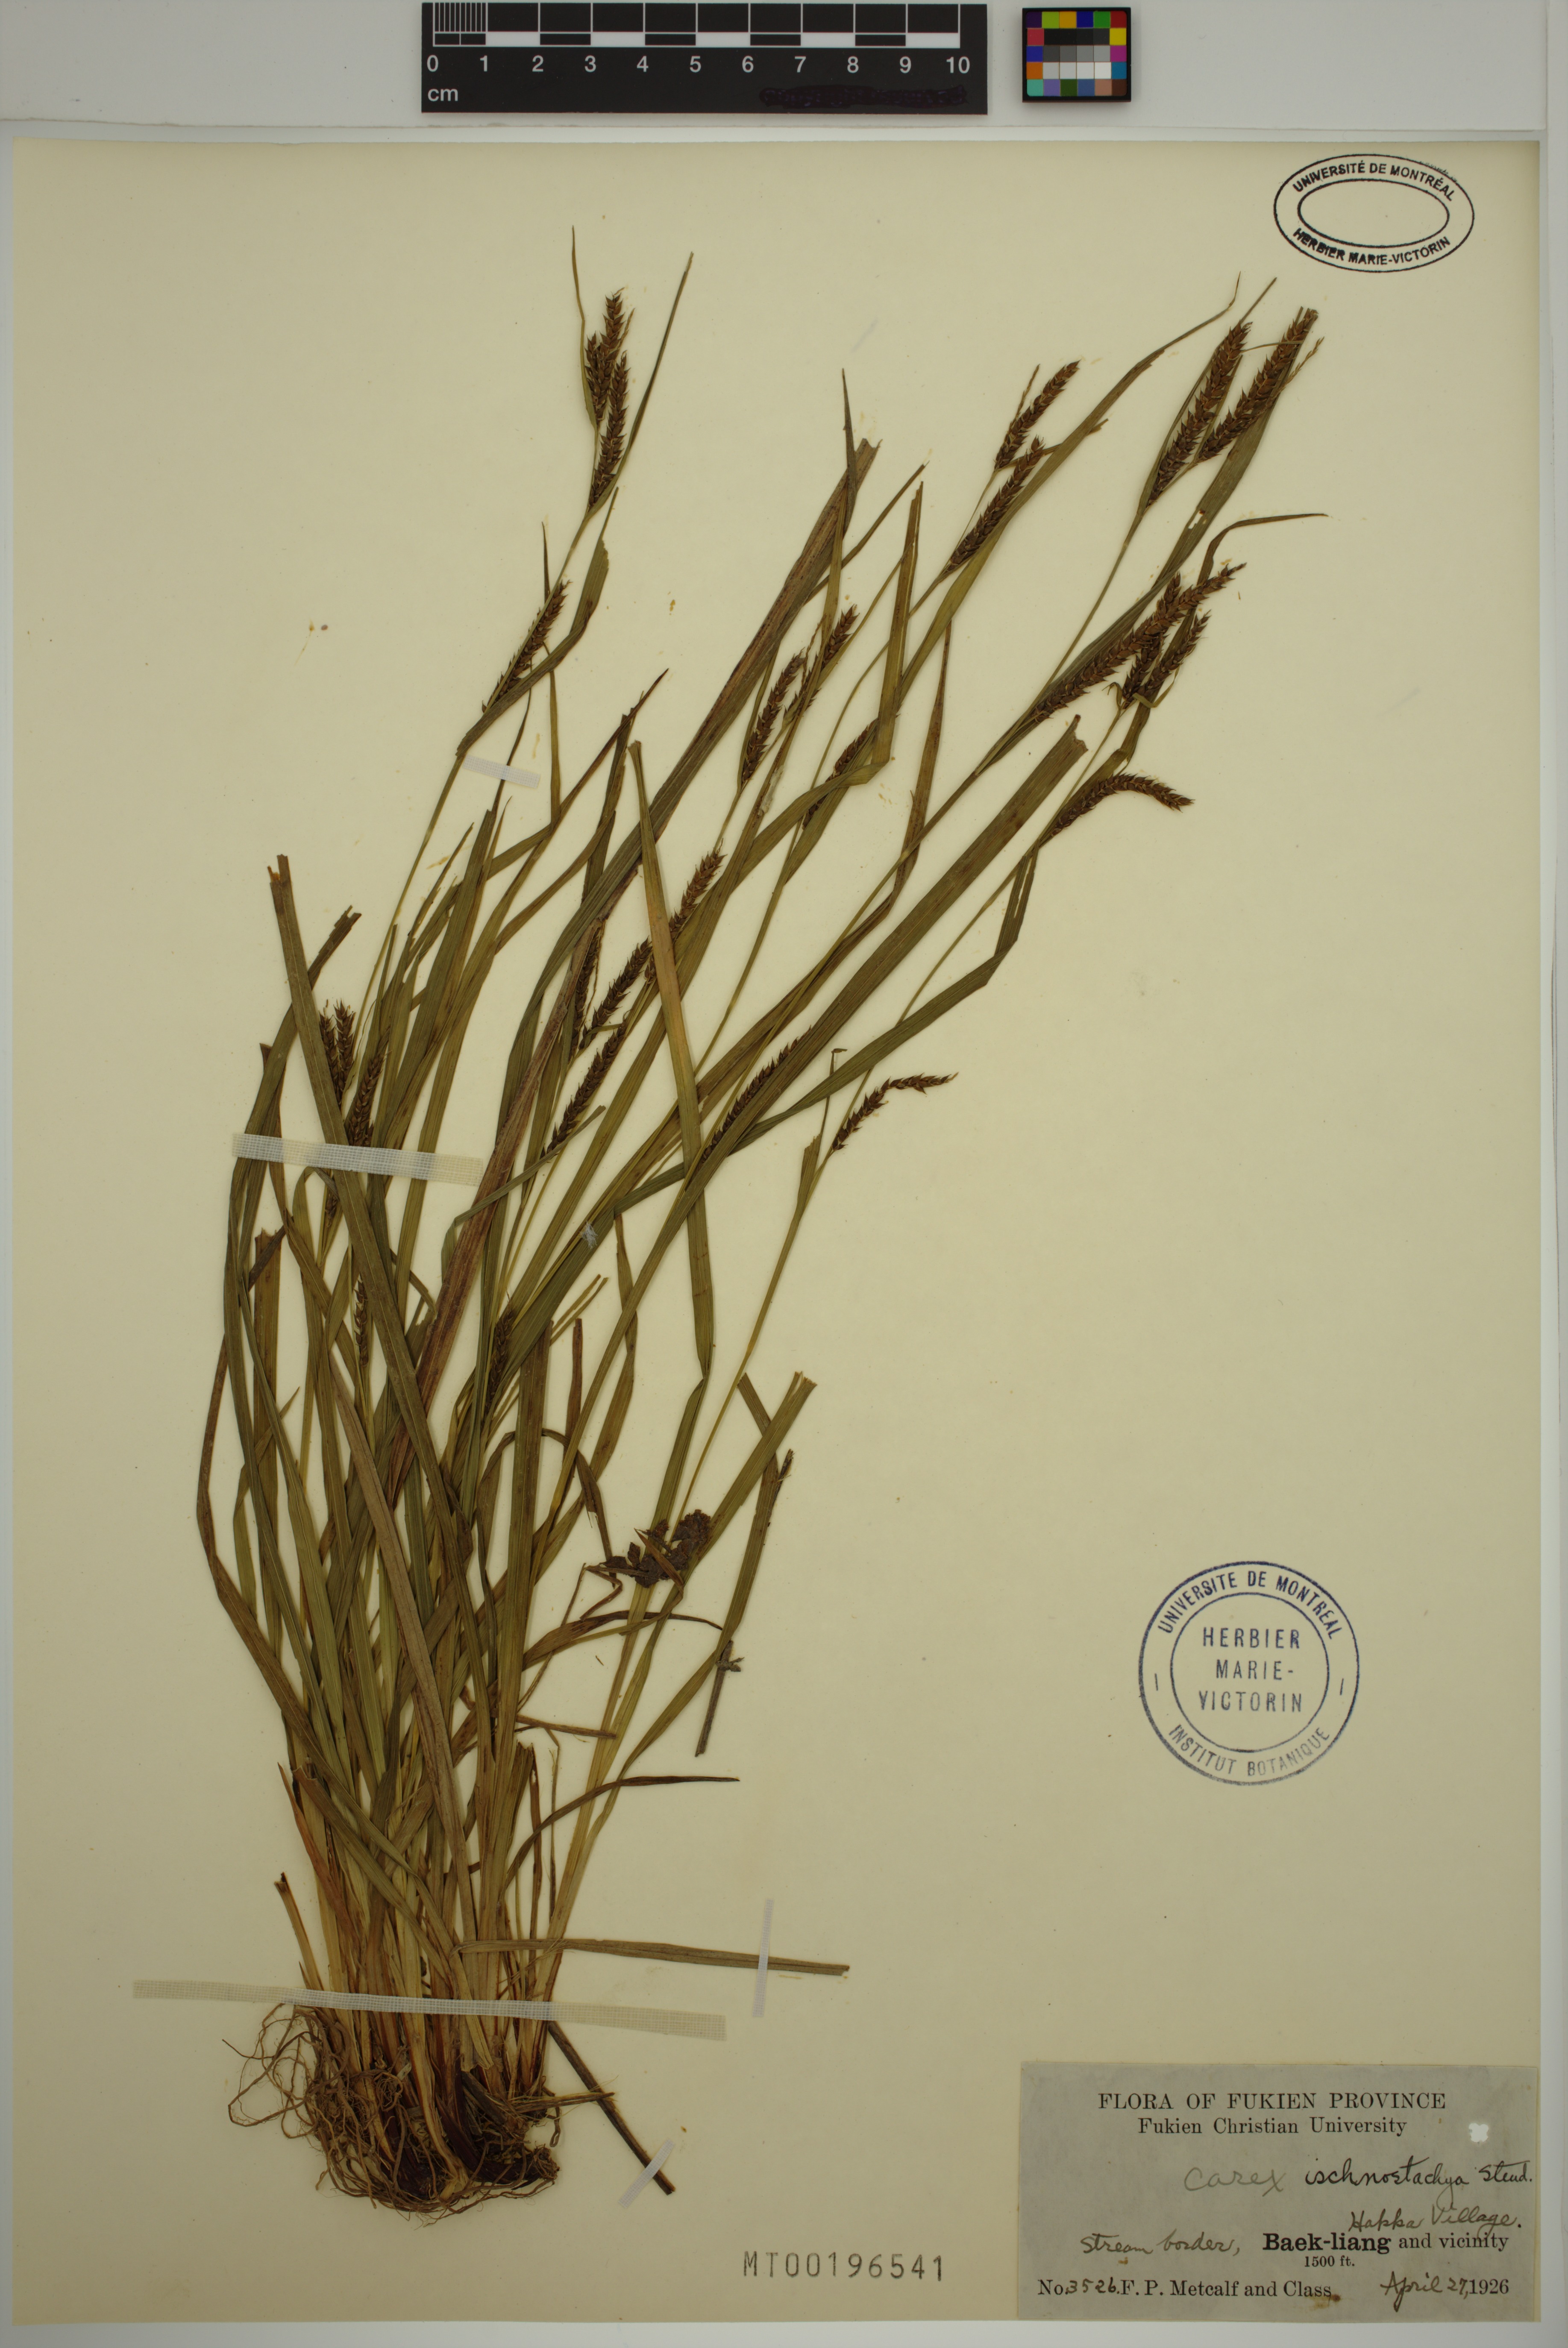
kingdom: Plantae
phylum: Tracheophyta
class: Liliopsida
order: Poales
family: Cyperaceae
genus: Carex
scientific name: Carex ischnostachya
